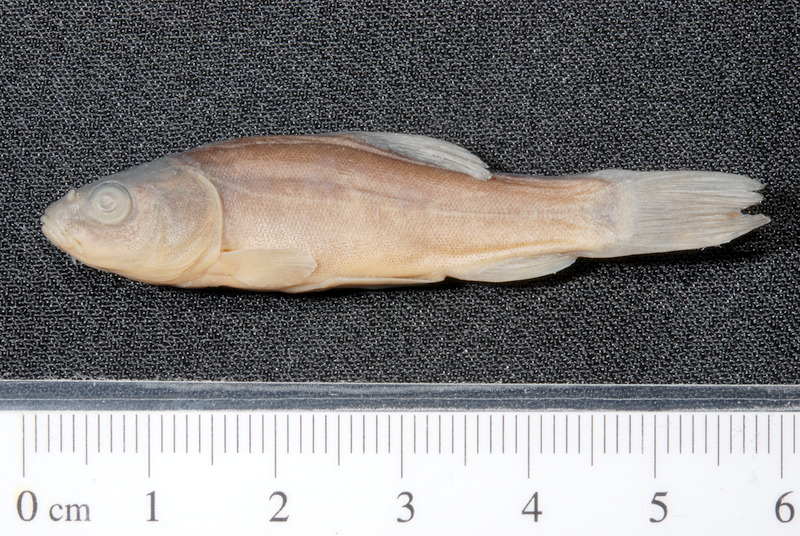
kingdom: Animalia
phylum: Chordata
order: Cypriniformes
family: Cyprinidae
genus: Tinca
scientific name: Tinca tinca
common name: Tench
